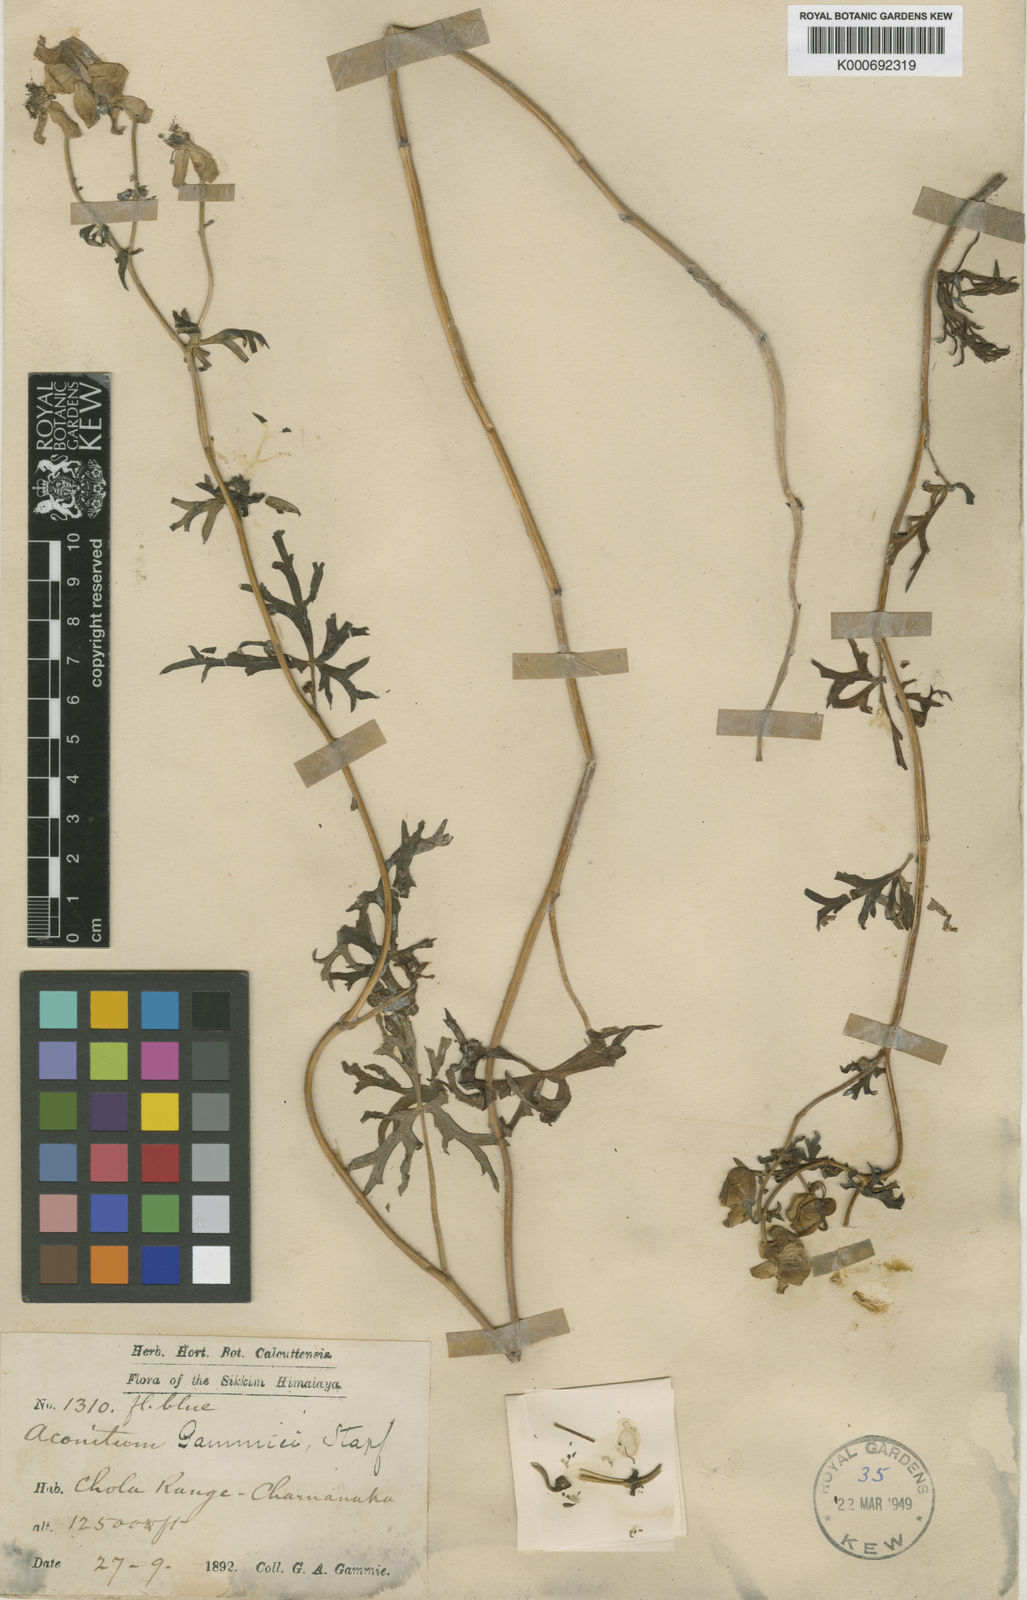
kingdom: Plantae
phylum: Tracheophyta
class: Magnoliopsida
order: Ranunculales
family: Ranunculaceae
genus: Aconitum
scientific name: Aconitum gammiei
